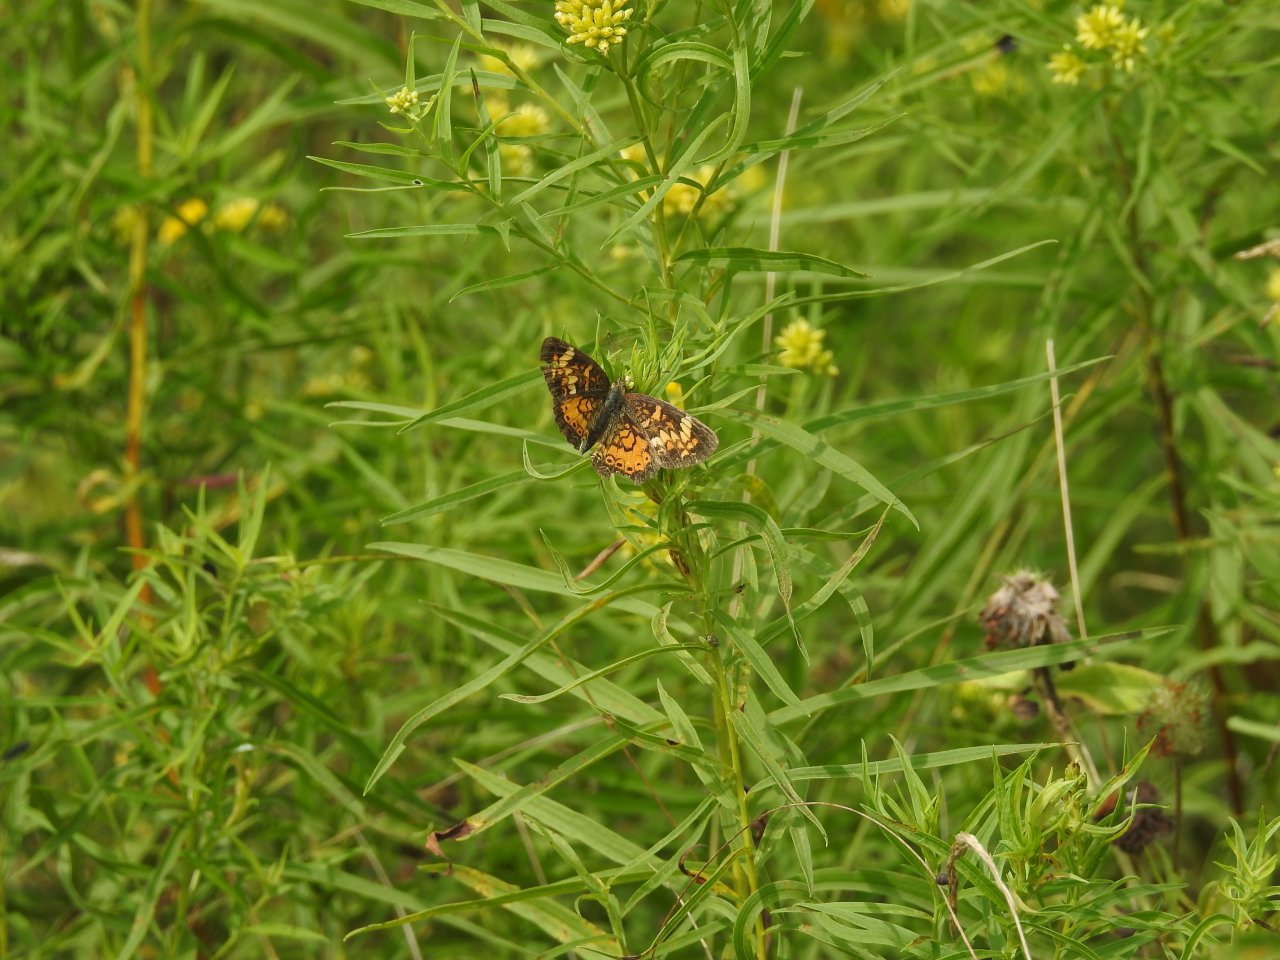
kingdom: Animalia
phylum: Arthropoda
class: Insecta
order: Lepidoptera
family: Nymphalidae
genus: Phyciodes
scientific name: Phyciodes tharos
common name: Pearl Crescent
